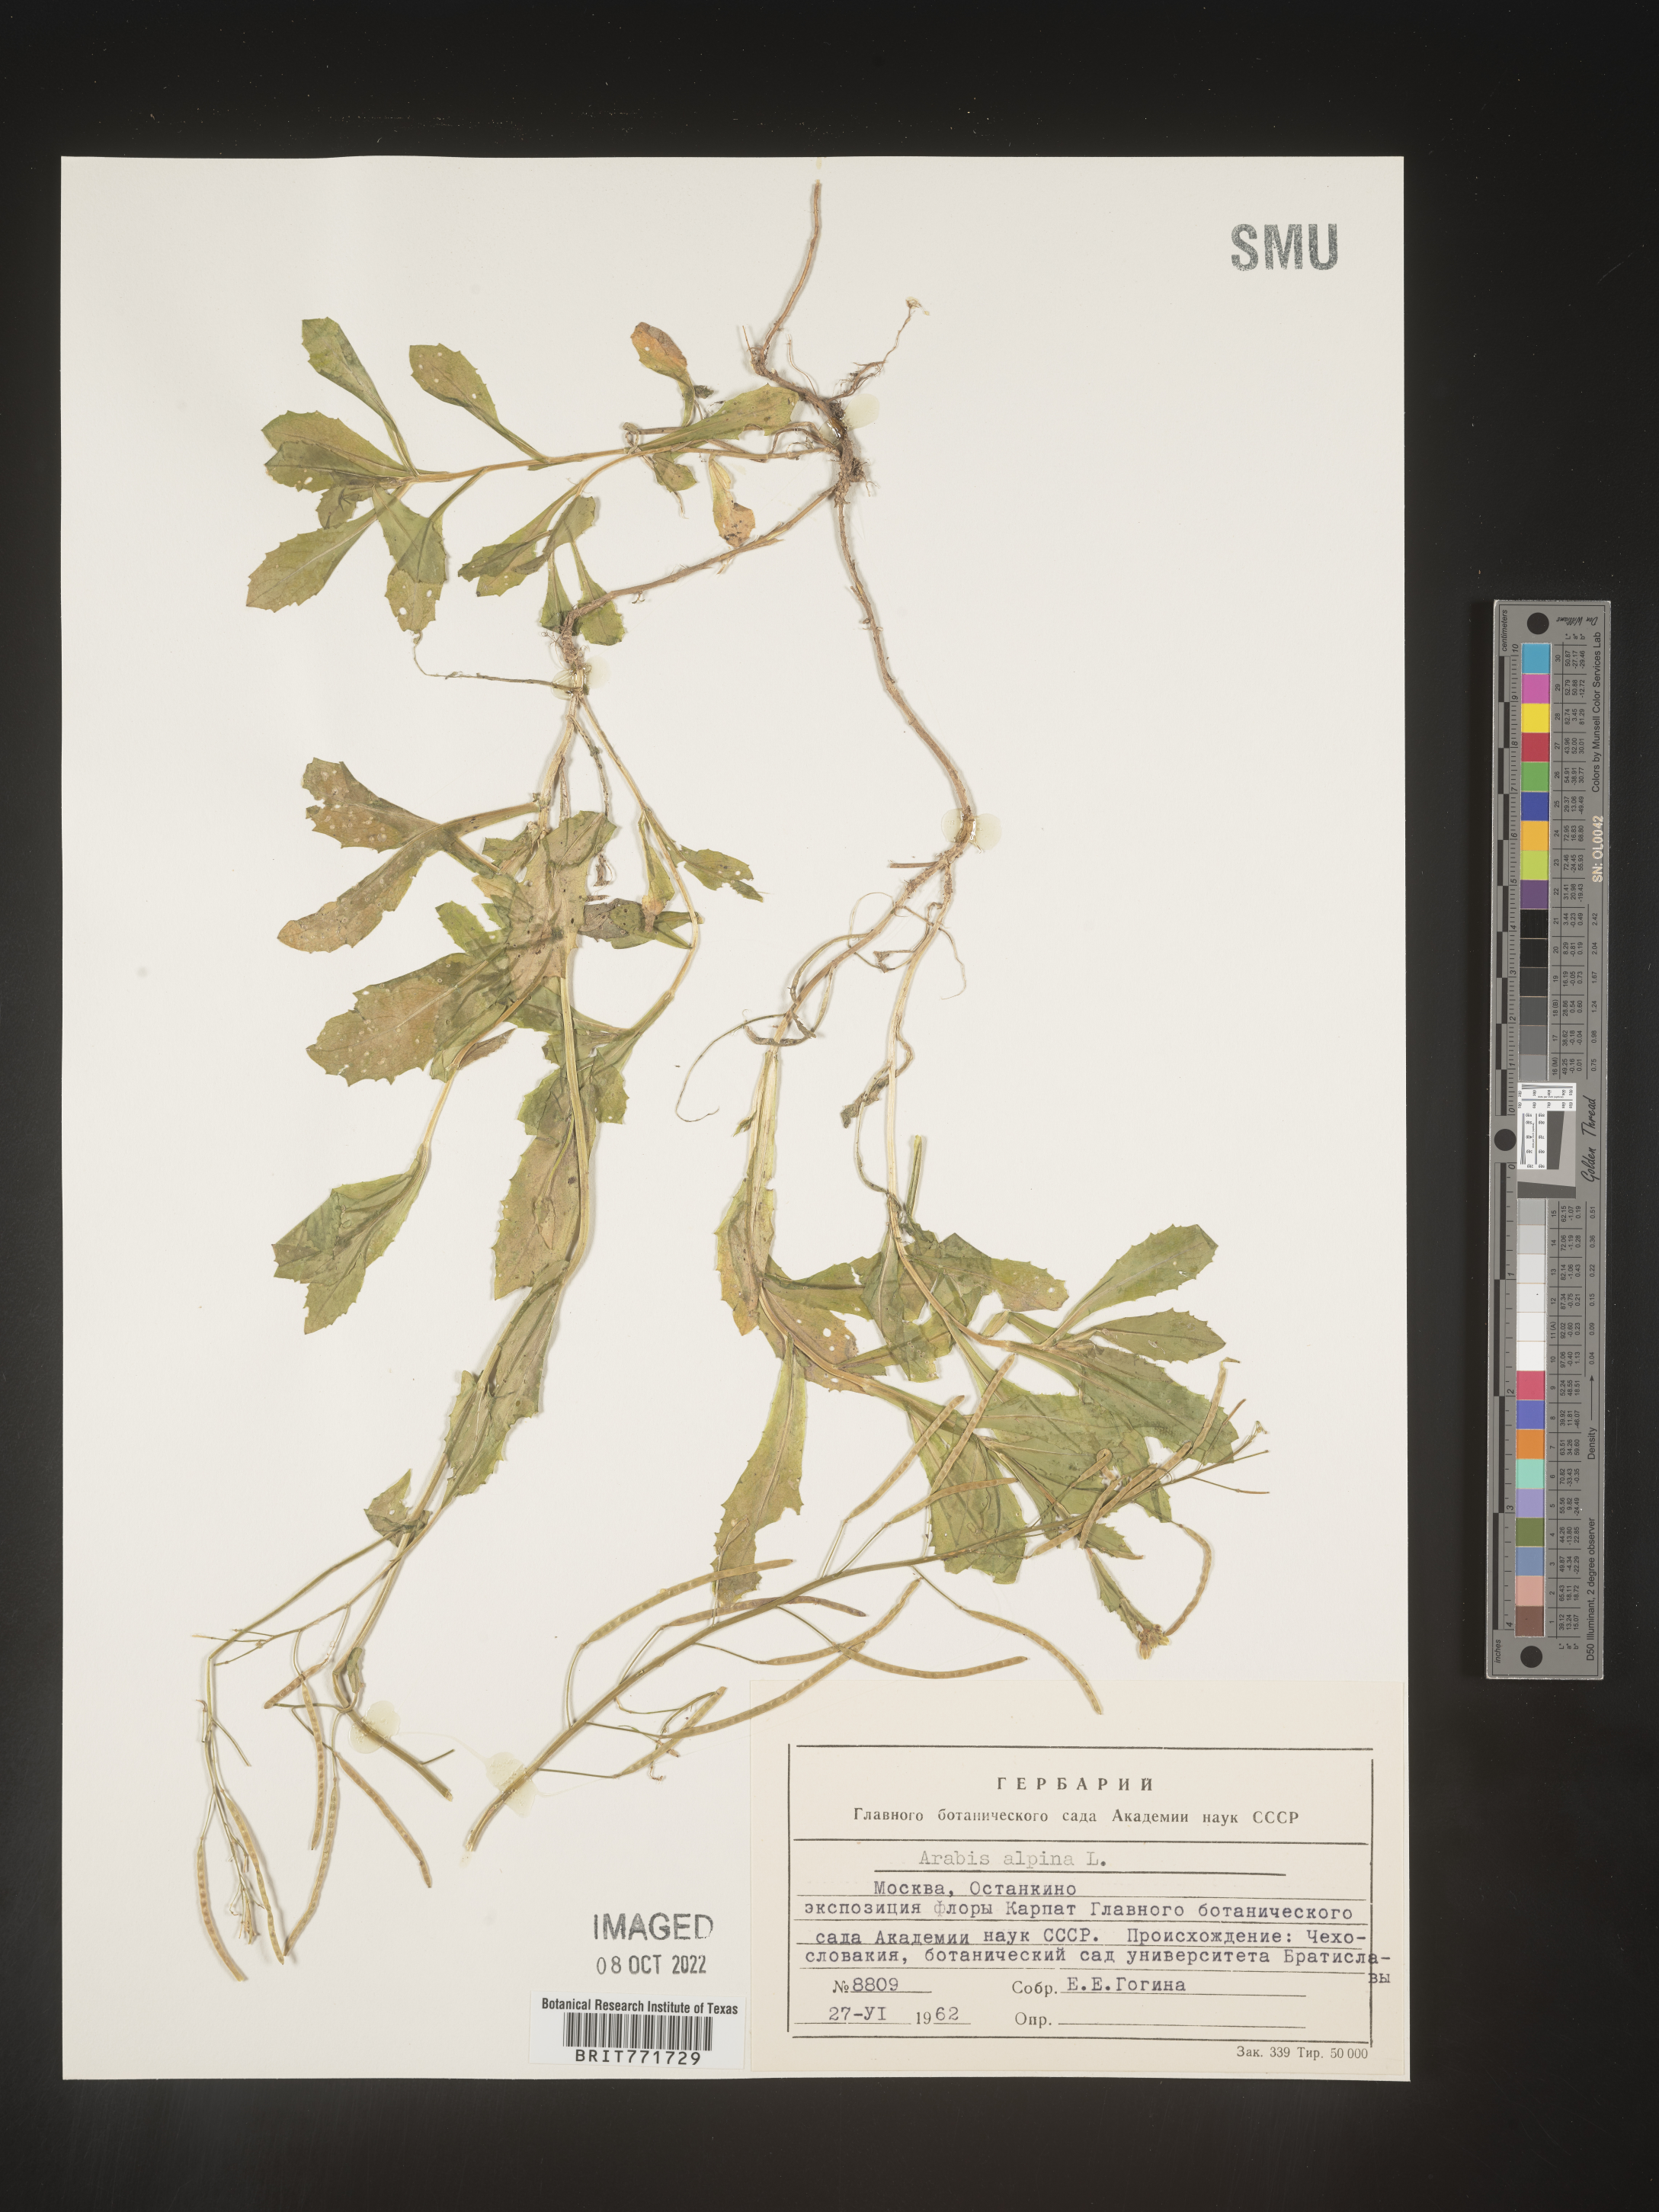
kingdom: Plantae
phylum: Tracheophyta
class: Magnoliopsida
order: Brassicales
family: Brassicaceae
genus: Arabis
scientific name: Arabis
